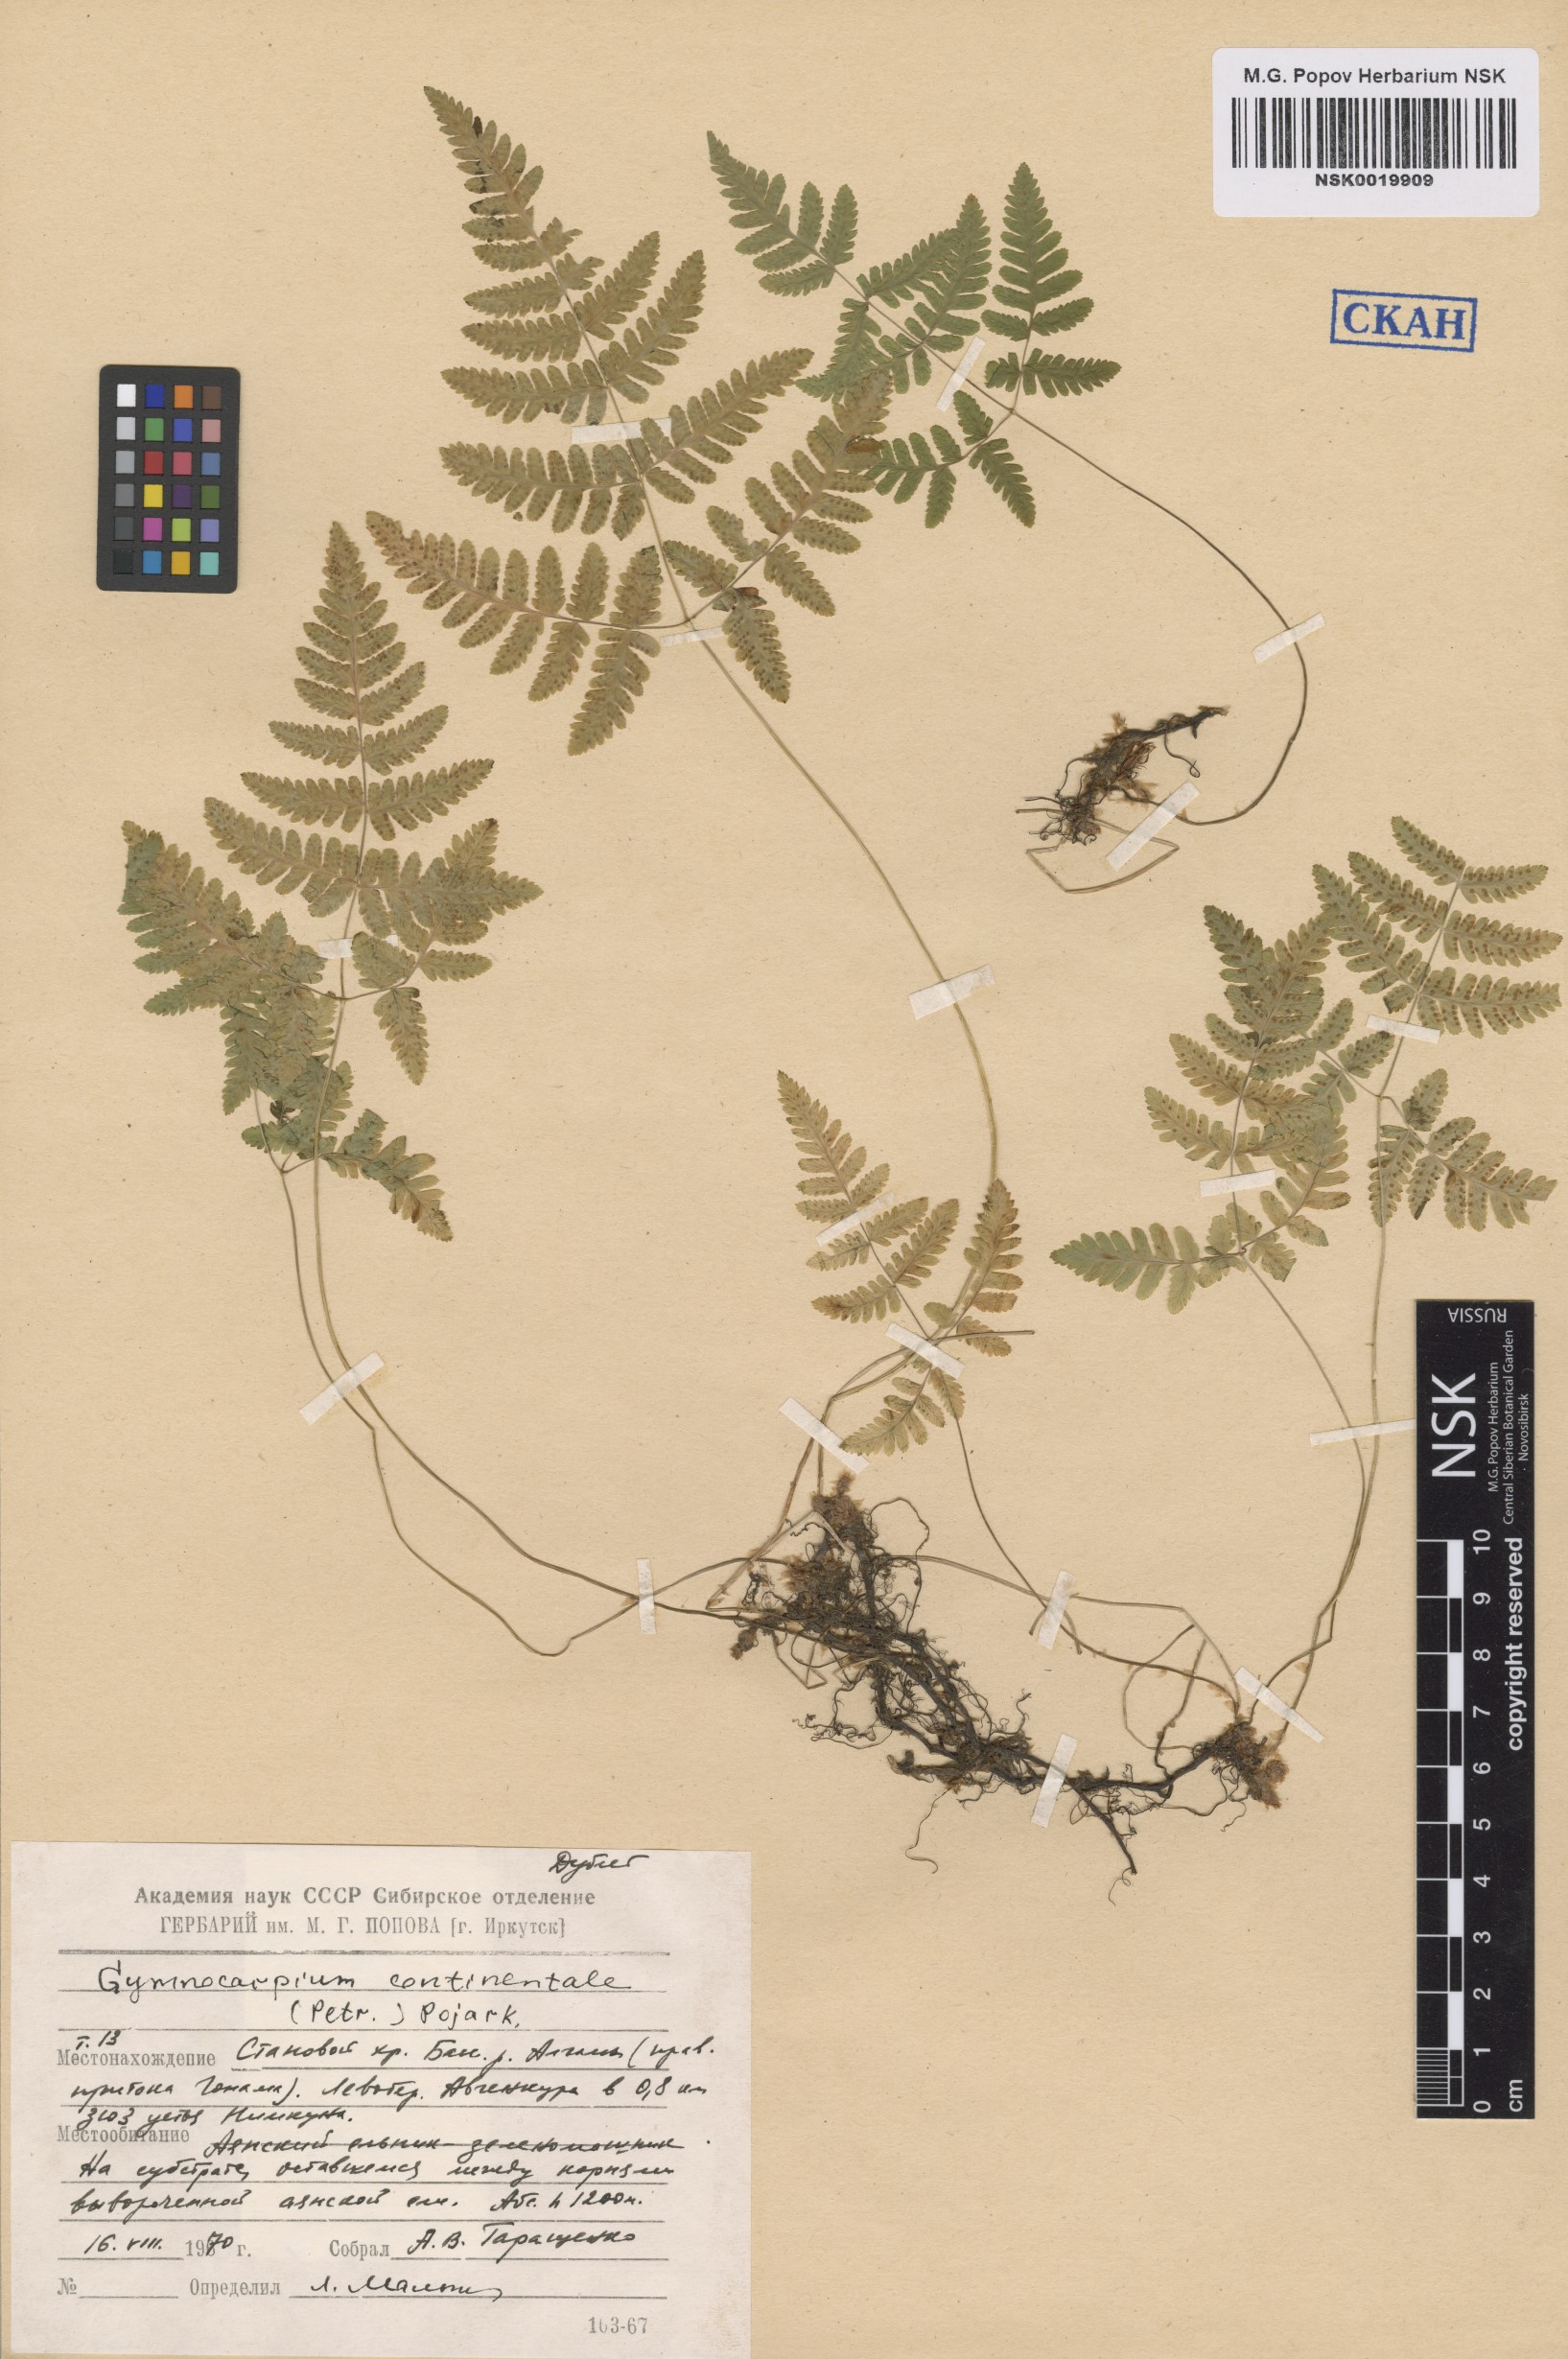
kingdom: Plantae
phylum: Tracheophyta
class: Polypodiopsida
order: Polypodiales
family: Cystopteridaceae
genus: Gymnocarpium
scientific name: Gymnocarpium continentale
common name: Asian oak fern
